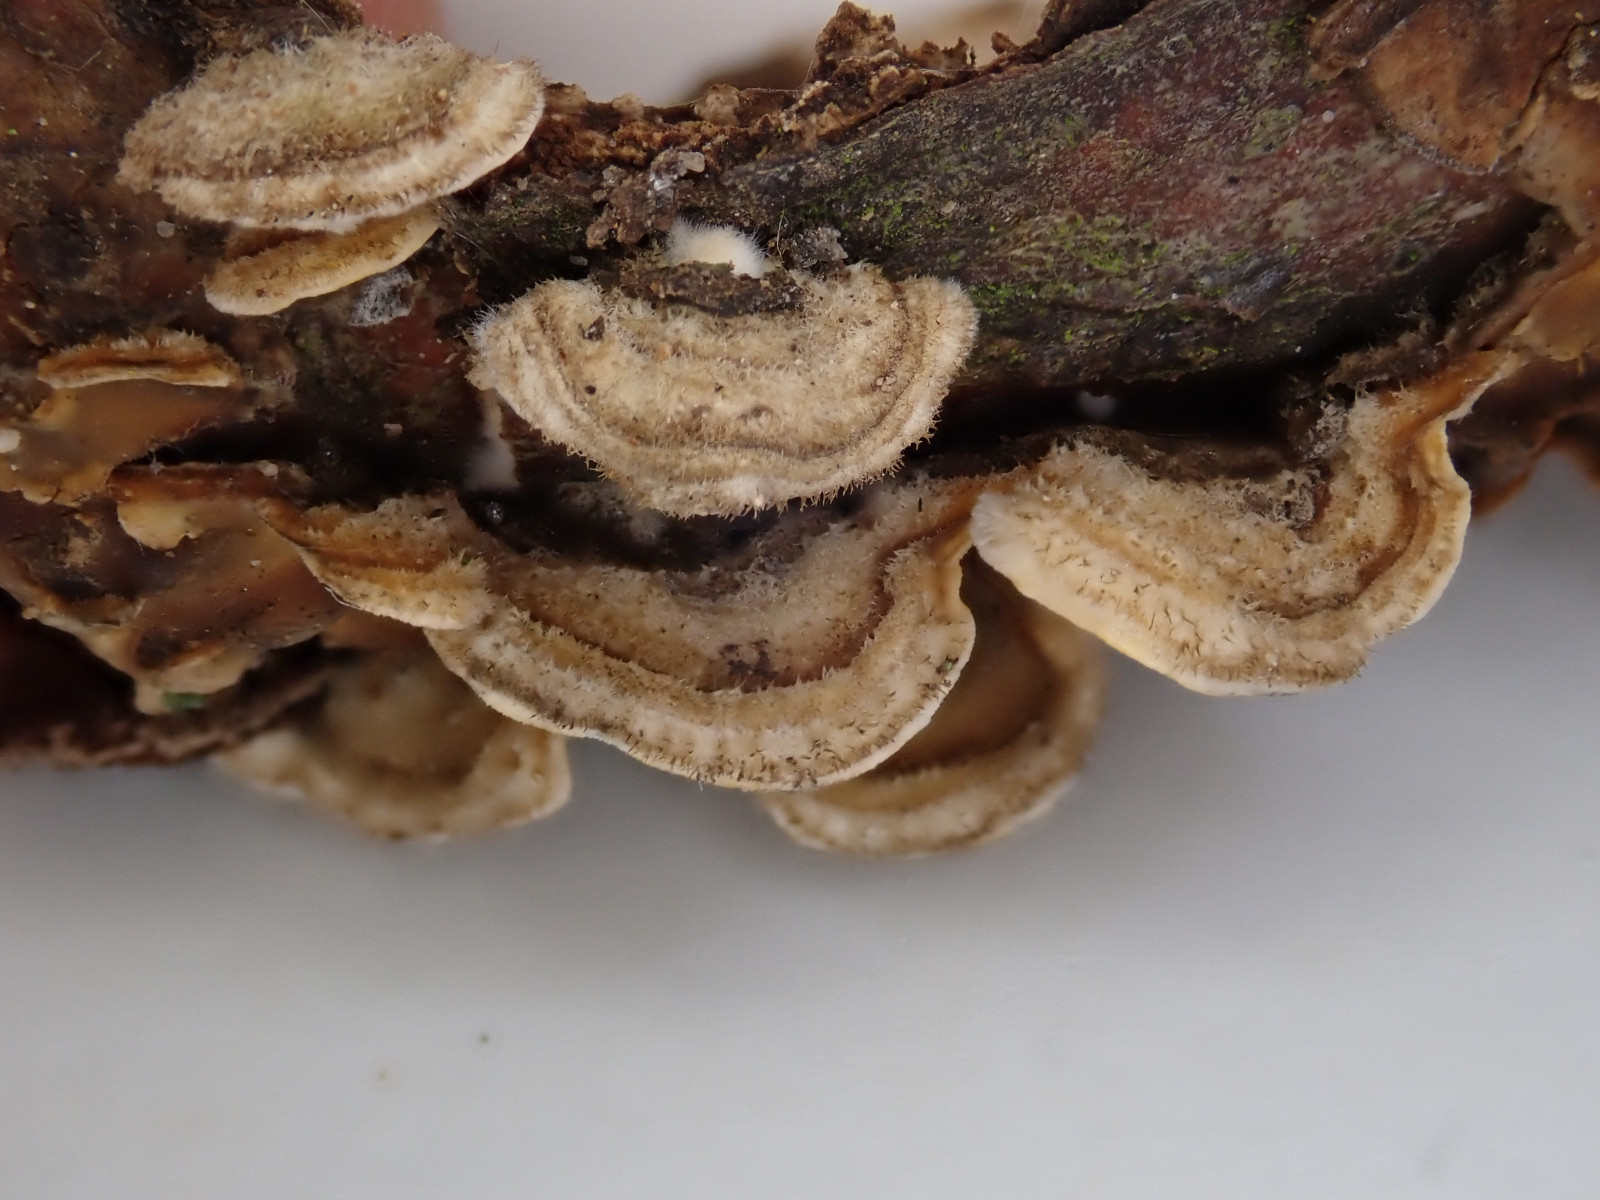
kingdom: Fungi
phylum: Basidiomycota
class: Agaricomycetes
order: Russulales
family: Stereaceae
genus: Stereum
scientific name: Stereum hirsutum
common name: håret lædersvamp
